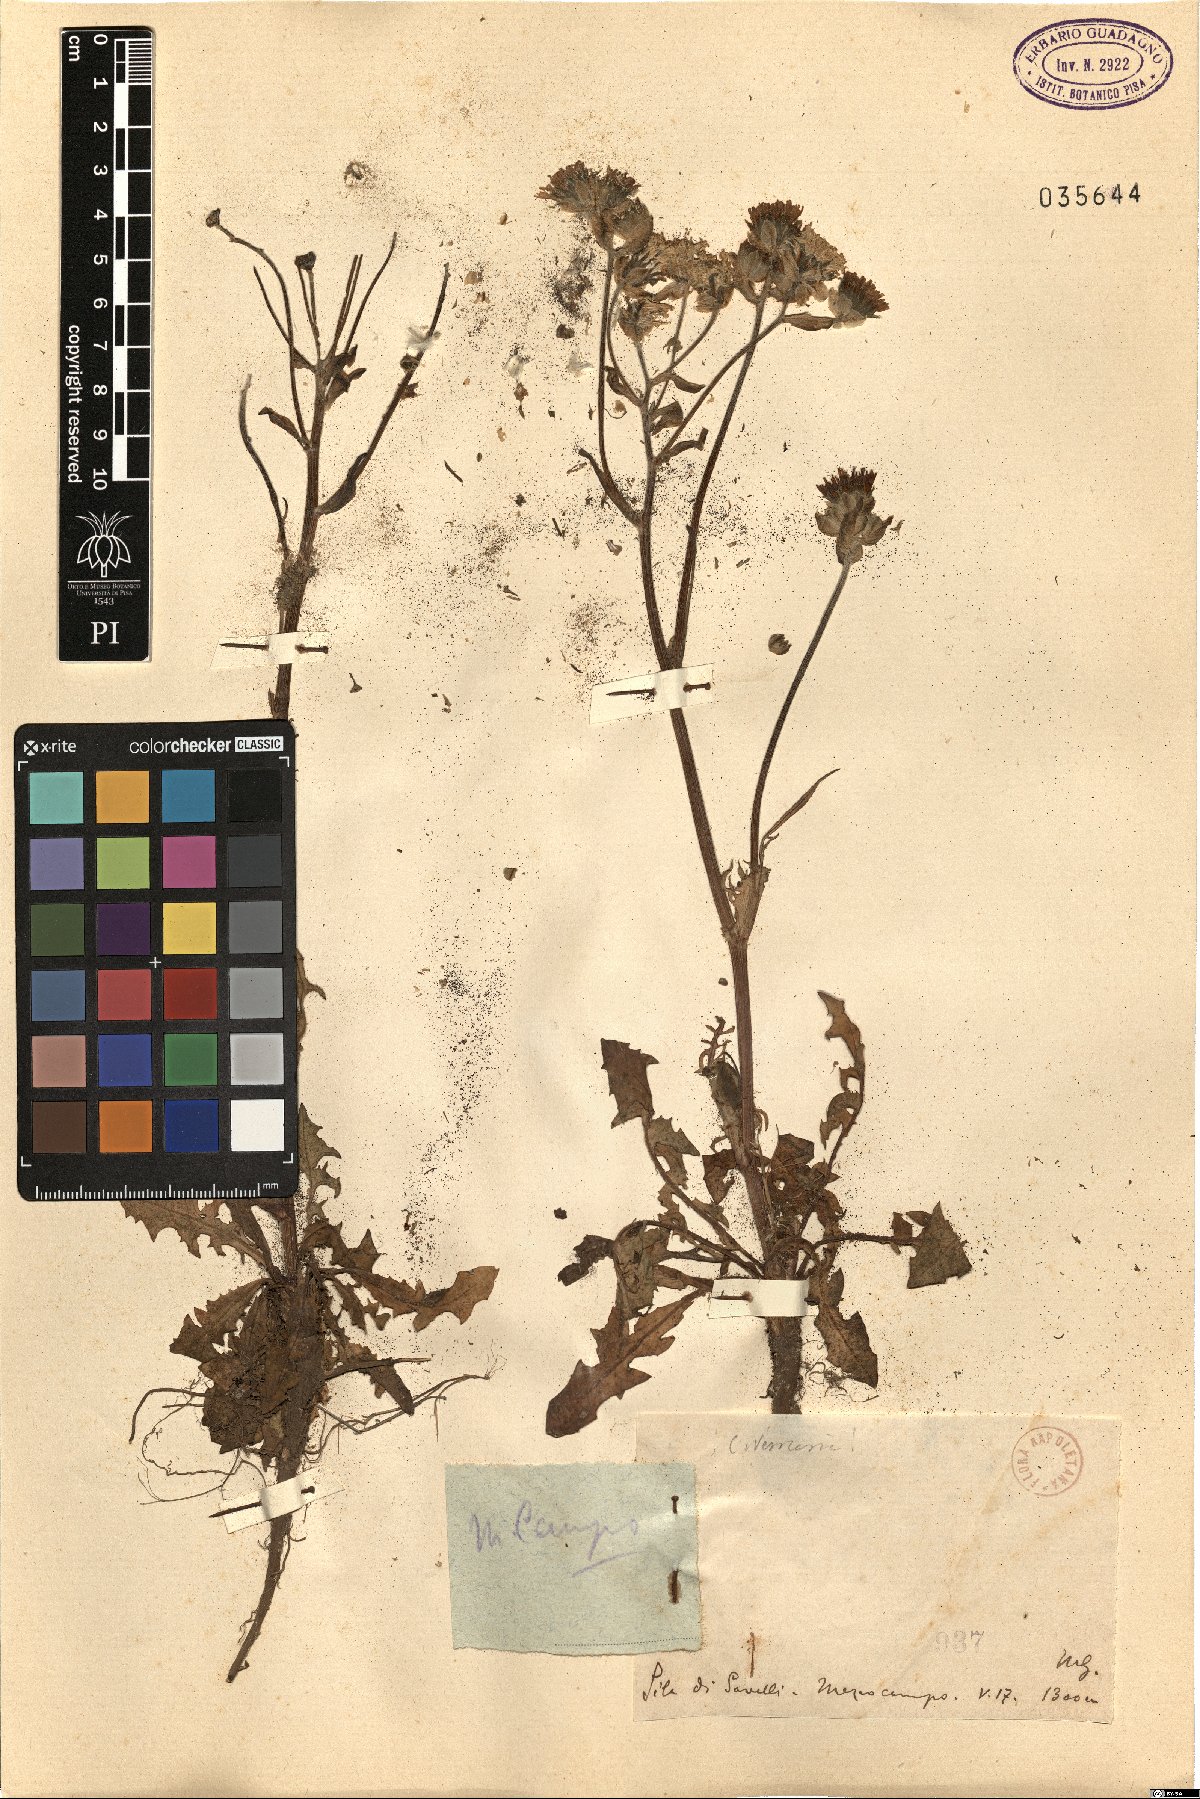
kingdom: Plantae
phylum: Tracheophyta
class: Magnoliopsida
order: Asterales
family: Asteraceae
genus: Crepis
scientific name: Crepis vesicaria
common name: Beaked hawksbeard
